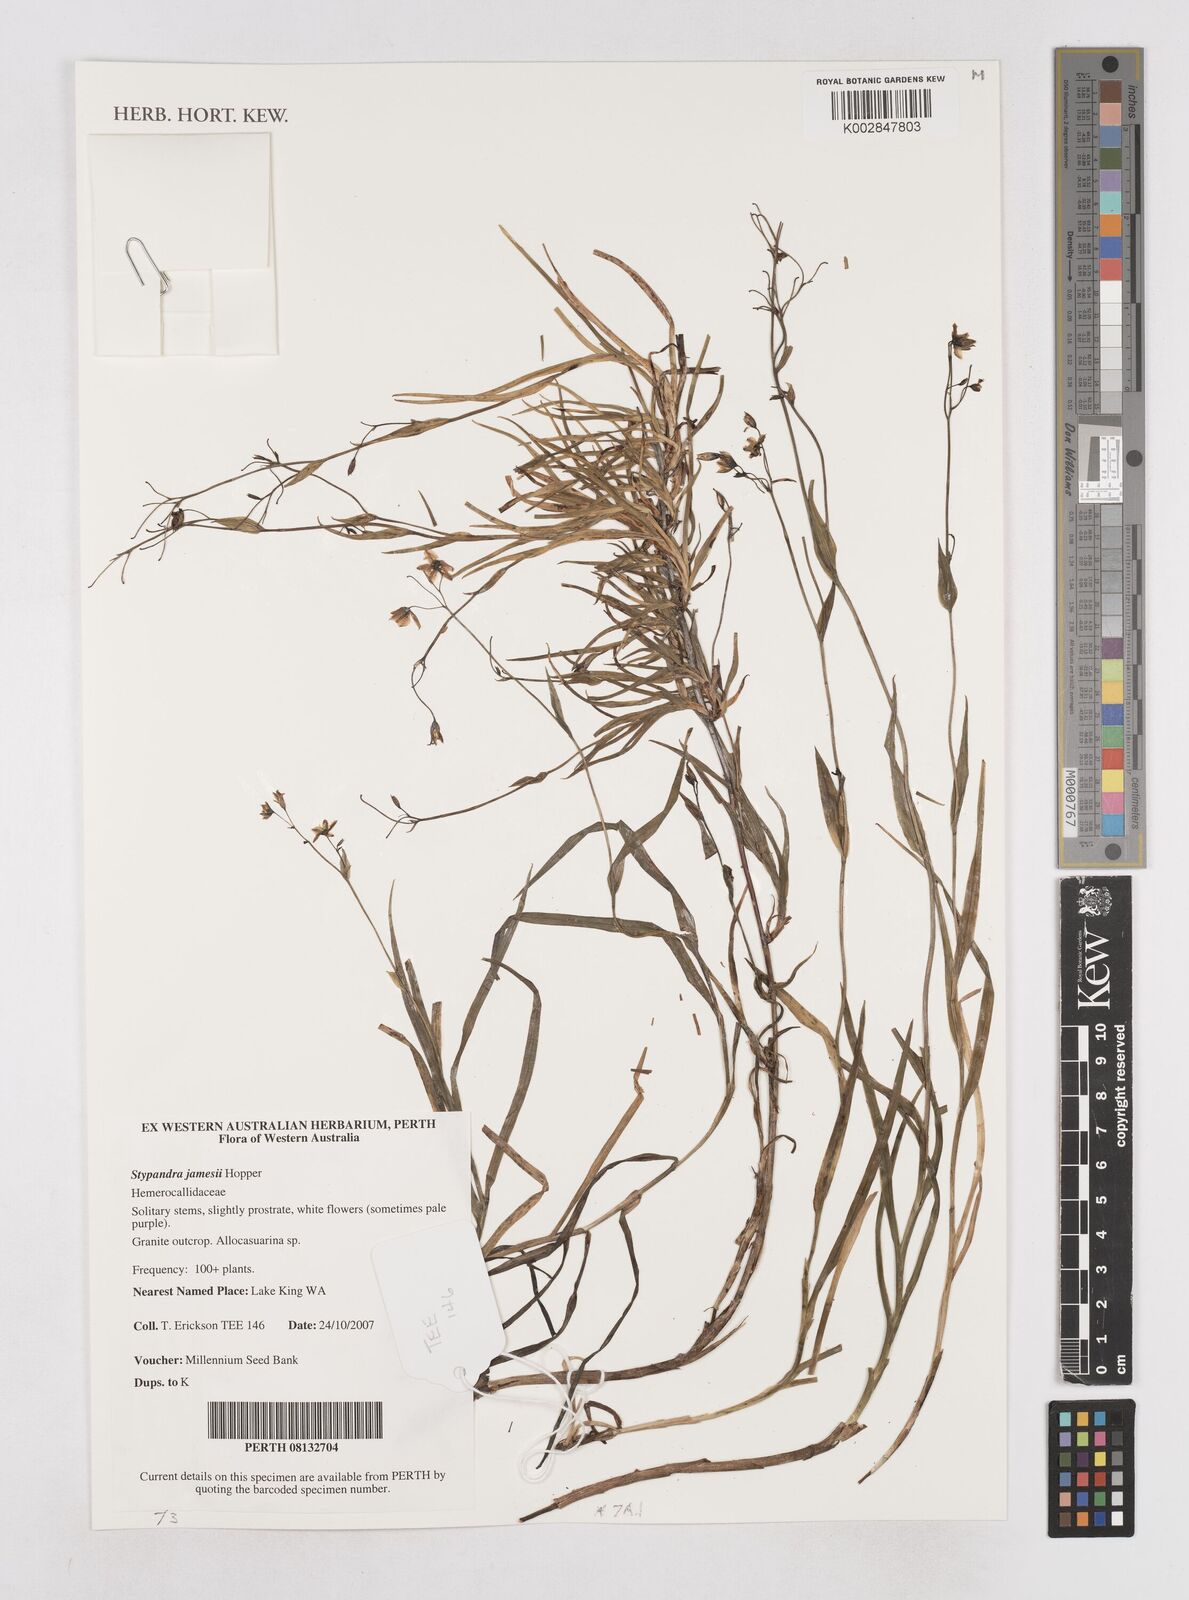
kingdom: Plantae
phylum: Tracheophyta
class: Liliopsida
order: Asparagales
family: Asphodelaceae
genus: Stypandra
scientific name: Stypandra jamesii
